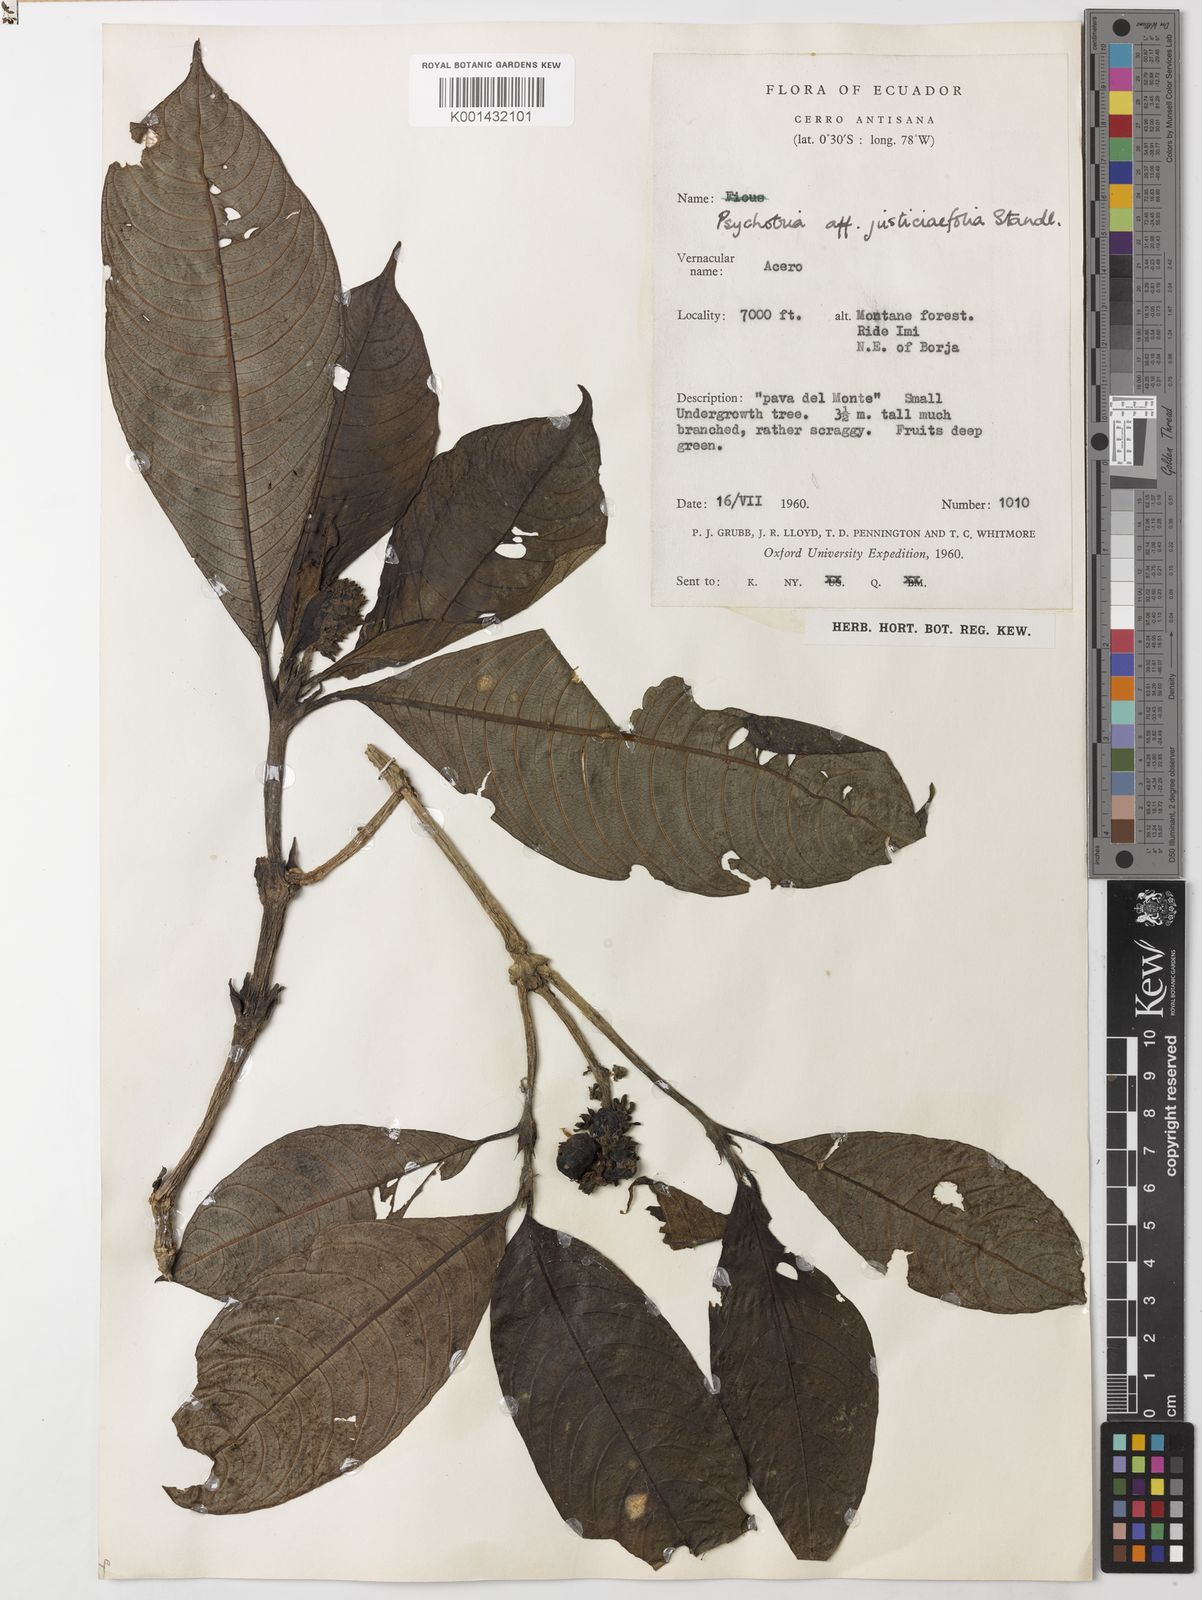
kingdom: Plantae
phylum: Tracheophyta
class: Magnoliopsida
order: Gentianales
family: Rubiaceae
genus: Palicourea
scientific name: Palicourea pilosa
